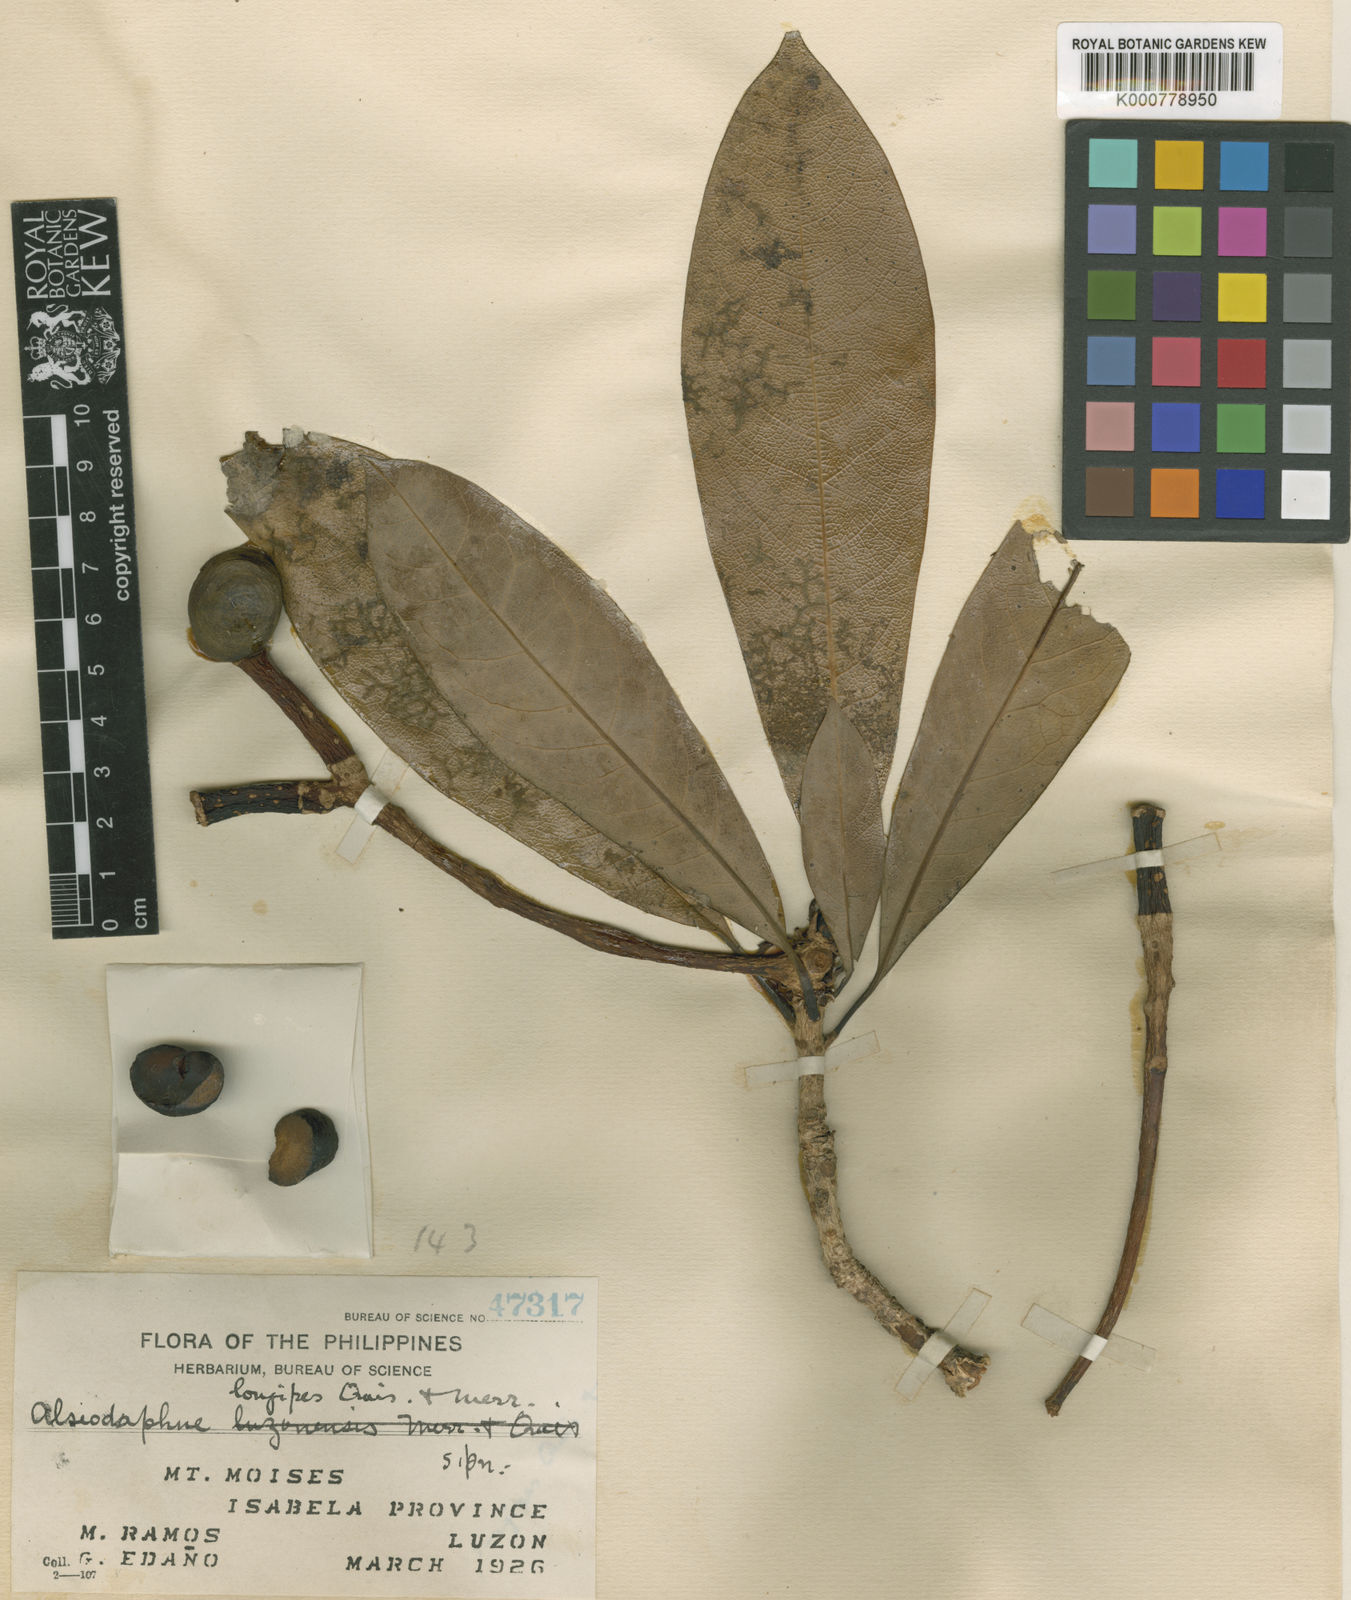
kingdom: Plantae
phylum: Tracheophyta
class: Magnoliopsida
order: Laurales
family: Lauraceae
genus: Alseodaphne
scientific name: Alseodaphne philippinensis
